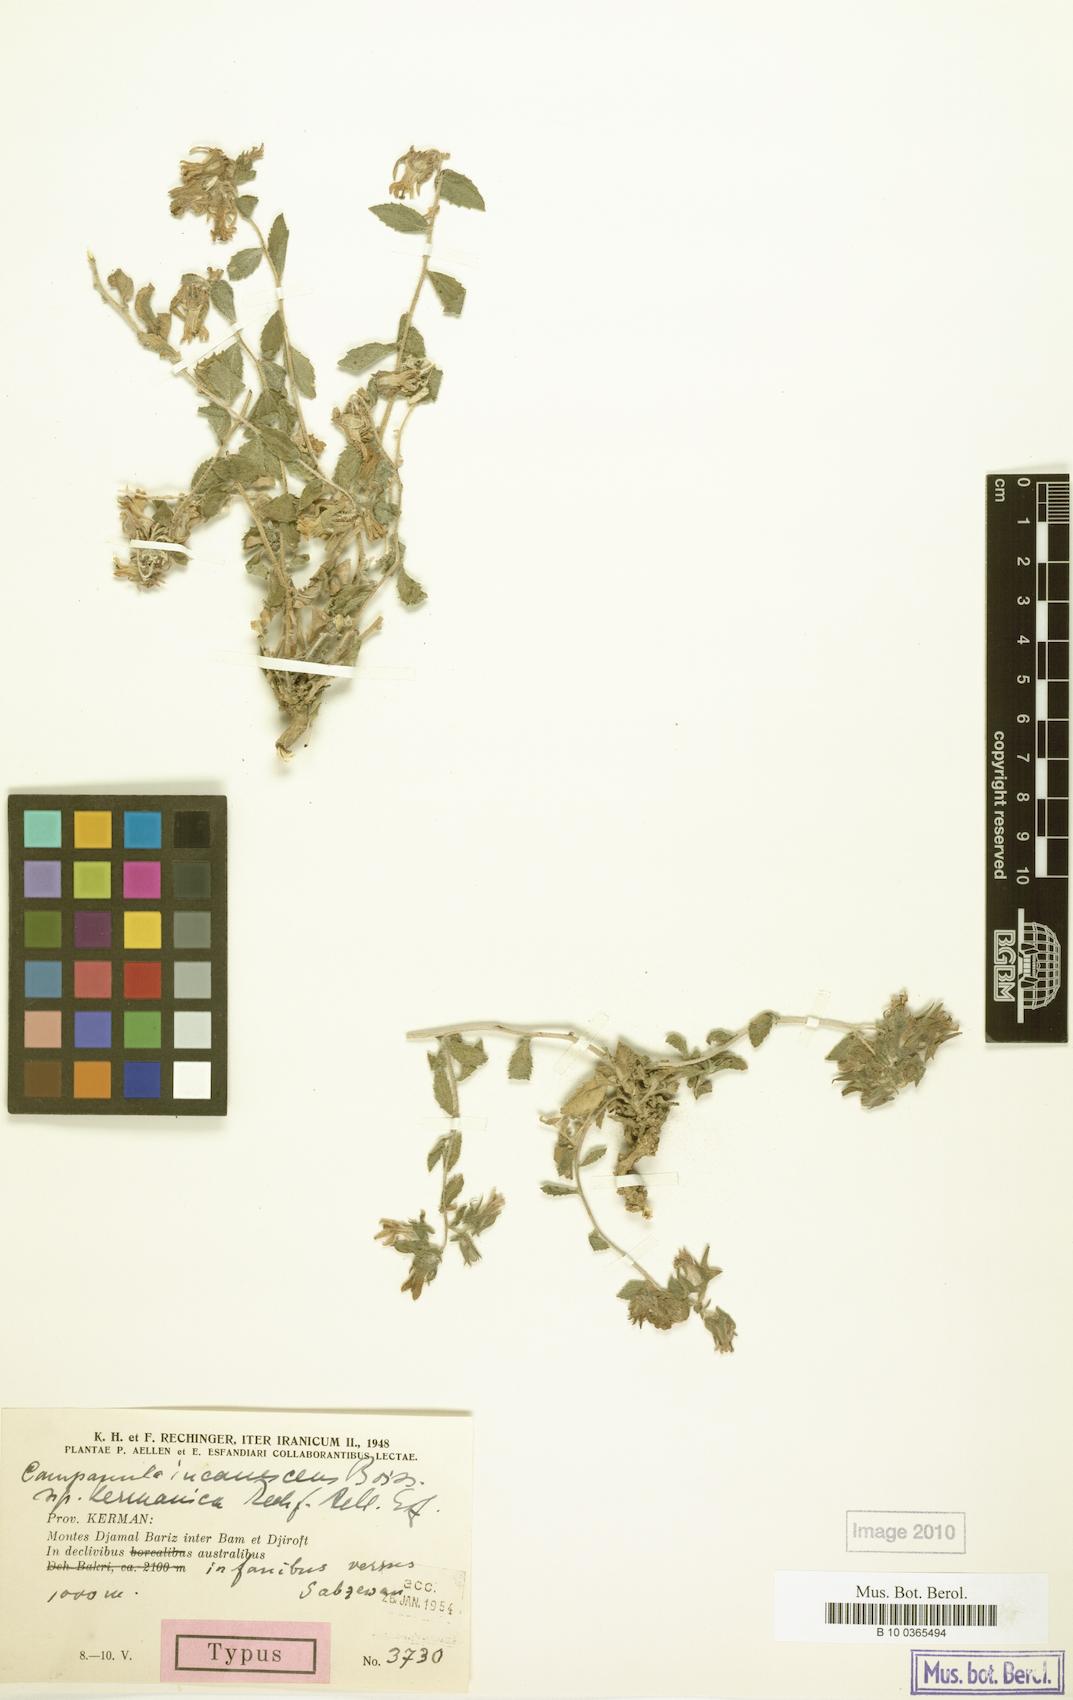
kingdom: Plantae
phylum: Tracheophyta
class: Magnoliopsida
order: Asterales
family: Campanulaceae
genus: Campanula
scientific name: Campanula incanescens
